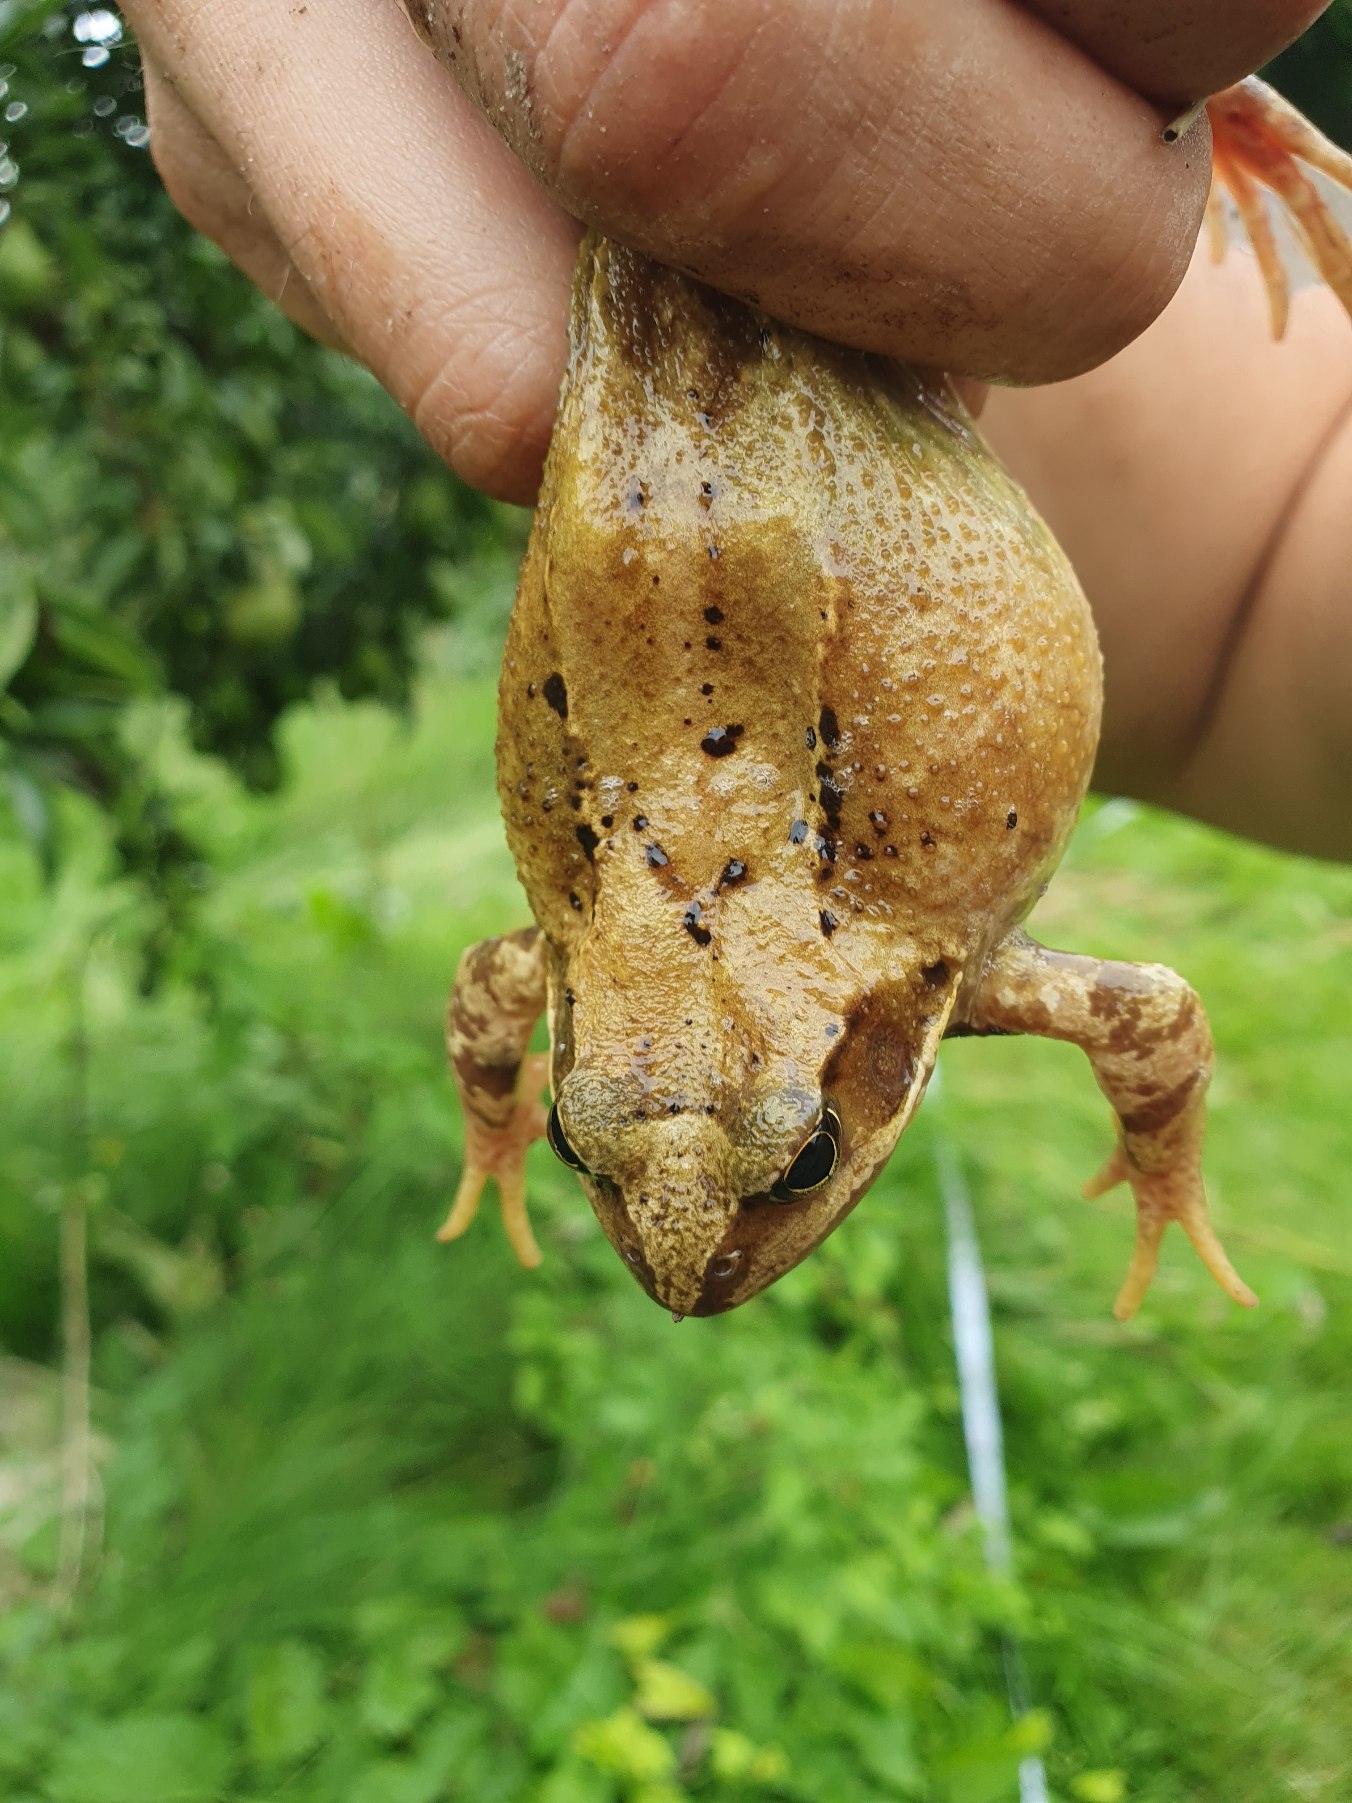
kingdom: Animalia
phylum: Chordata
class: Amphibia
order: Anura
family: Ranidae
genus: Rana
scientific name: Rana temporaria
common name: Butsnudet frø
